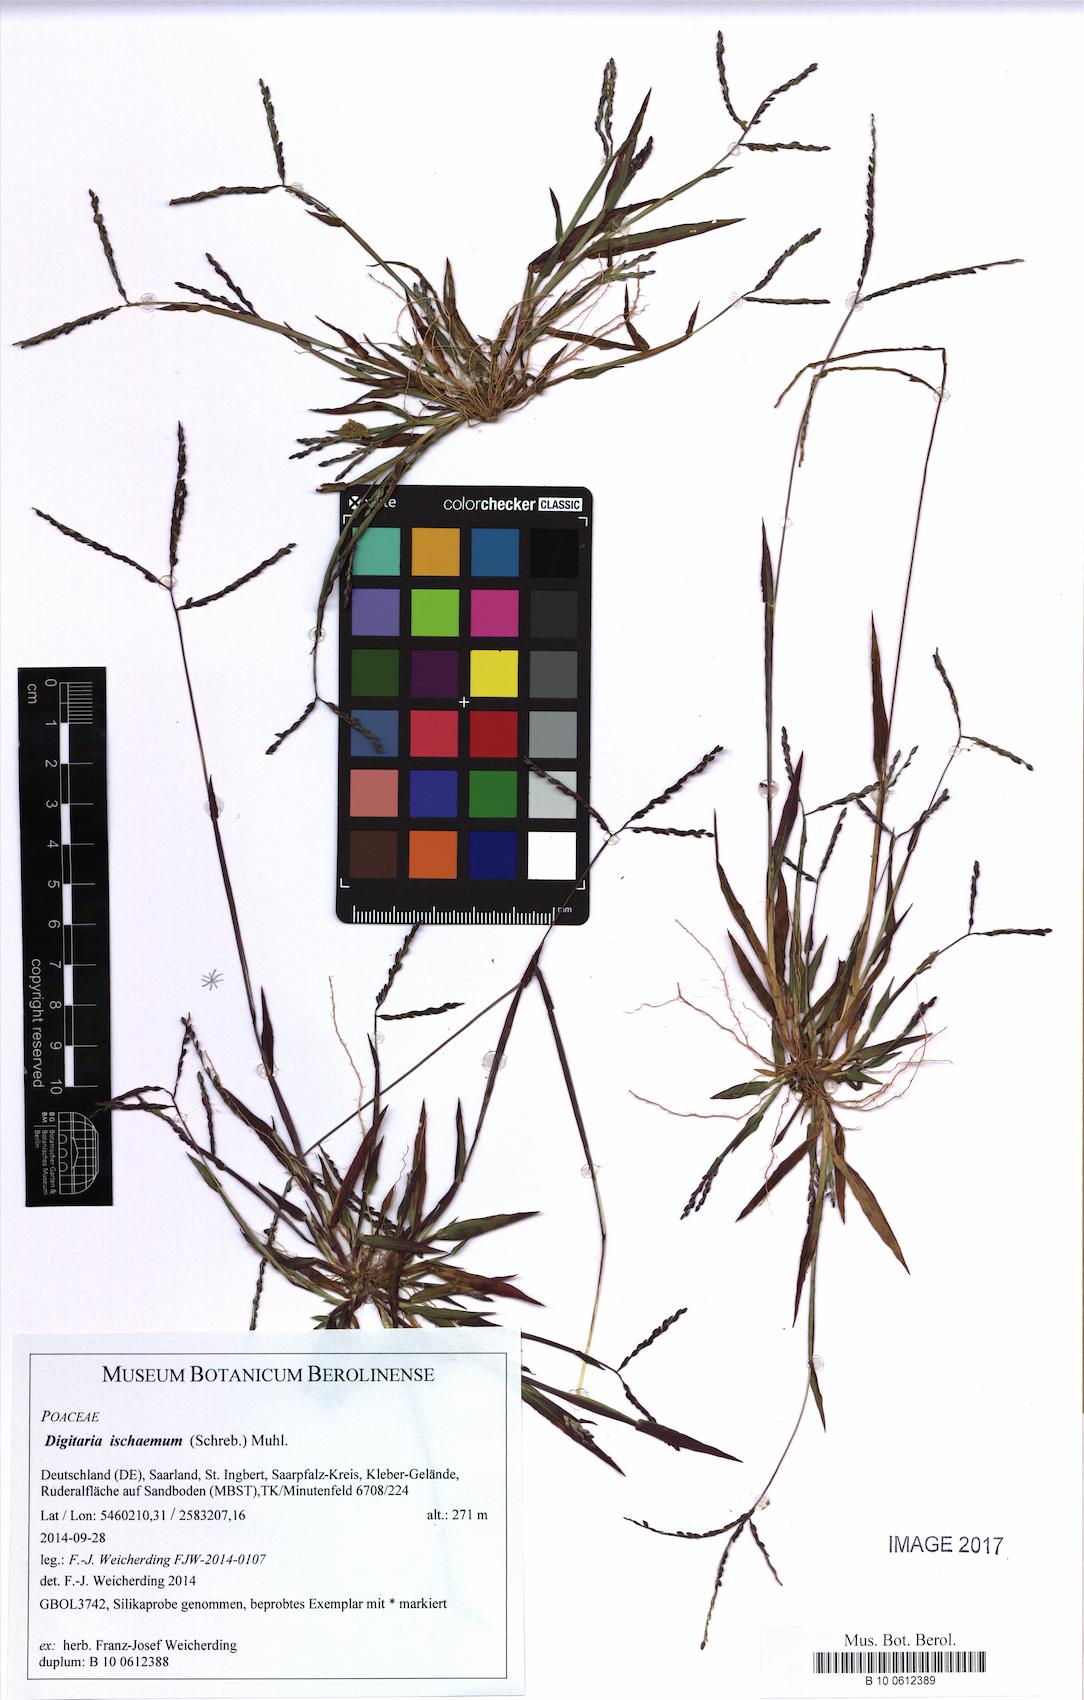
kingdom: Plantae
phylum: Tracheophyta
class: Liliopsida
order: Poales
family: Poaceae
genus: Digitaria
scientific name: Digitaria ischaemum
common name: Smooth crabgrass
